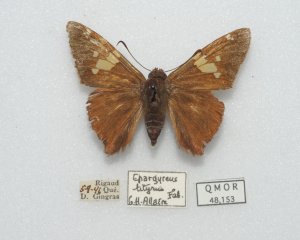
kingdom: Animalia
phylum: Arthropoda
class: Insecta
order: Lepidoptera
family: Hesperiidae
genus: Epargyreus
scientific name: Epargyreus clarus
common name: Silver-spotted Skipper
